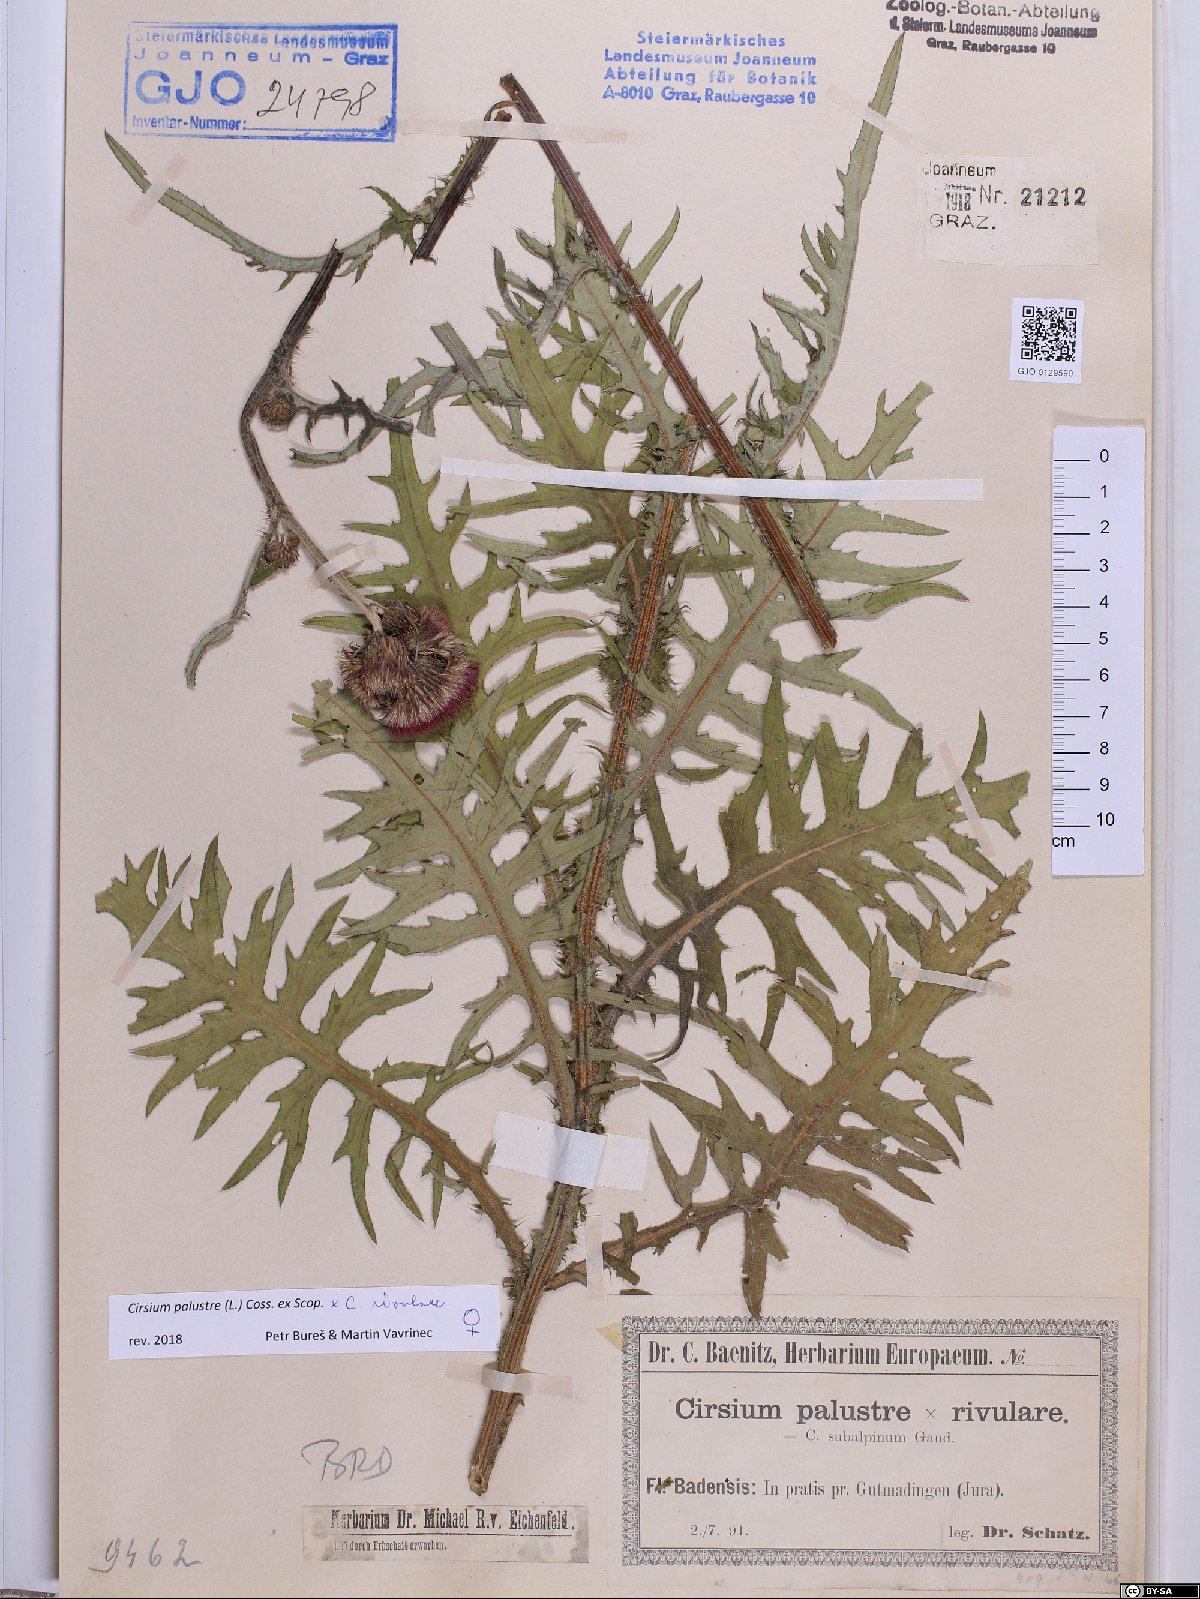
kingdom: Plantae
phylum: Tracheophyta
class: Magnoliopsida
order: Asterales
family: Asteraceae
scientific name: Asteraceae
